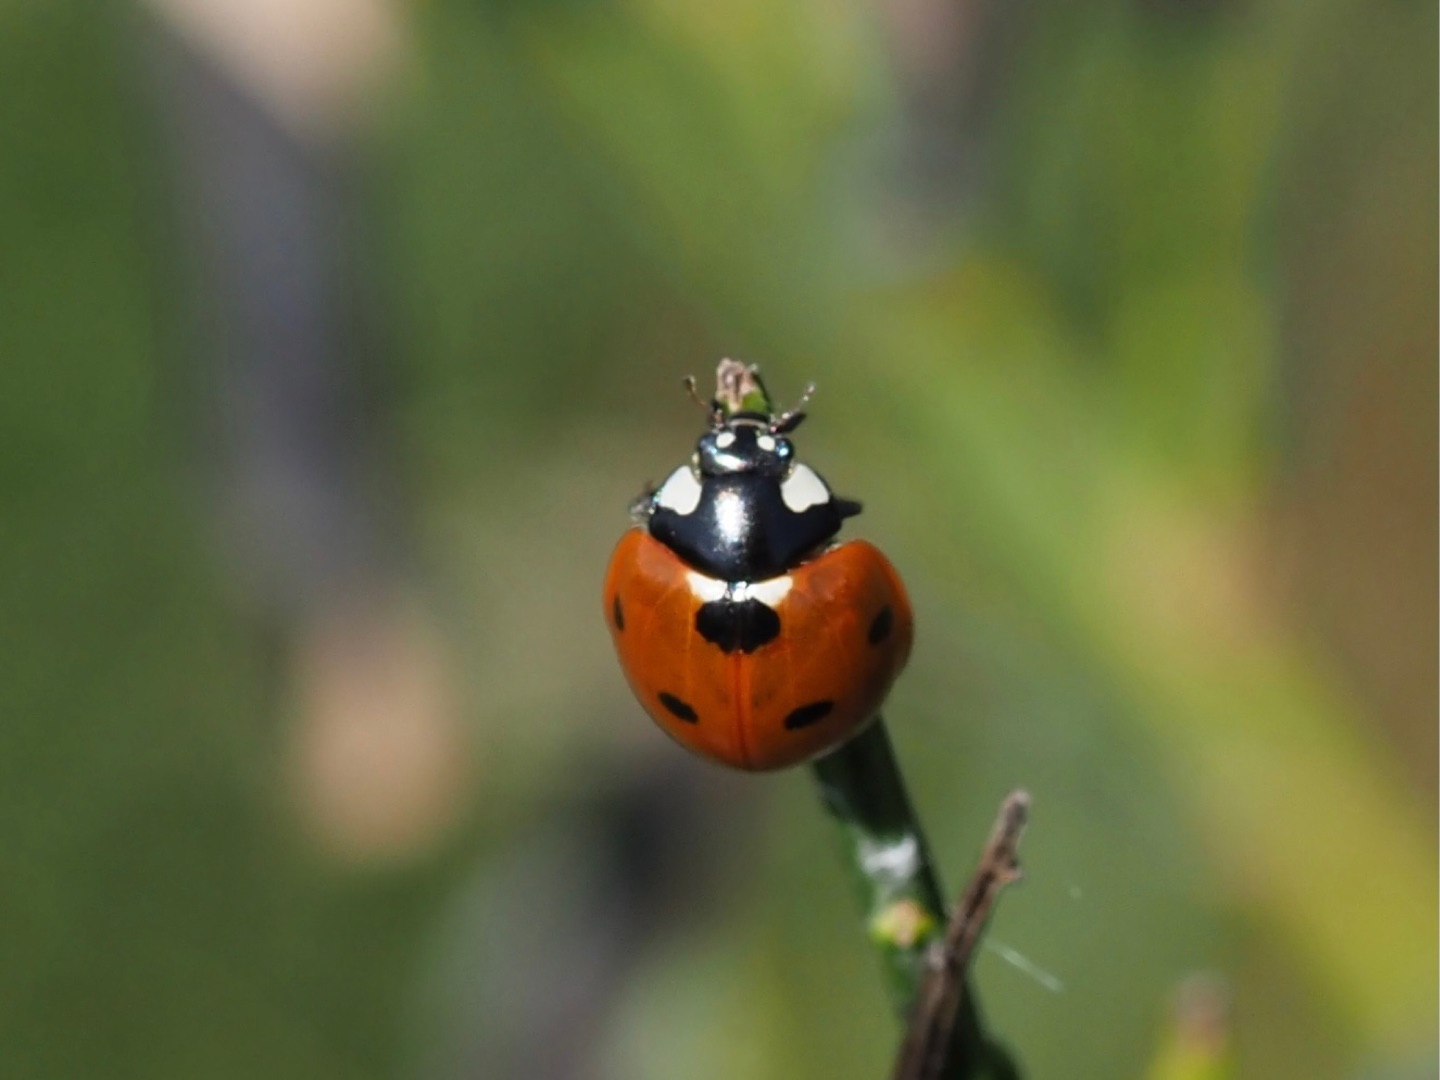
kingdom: Animalia
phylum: Arthropoda
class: Insecta
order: Coleoptera
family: Coccinellidae
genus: Coccinella
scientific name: Coccinella septempunctata
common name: Syvplettet mariehøne
